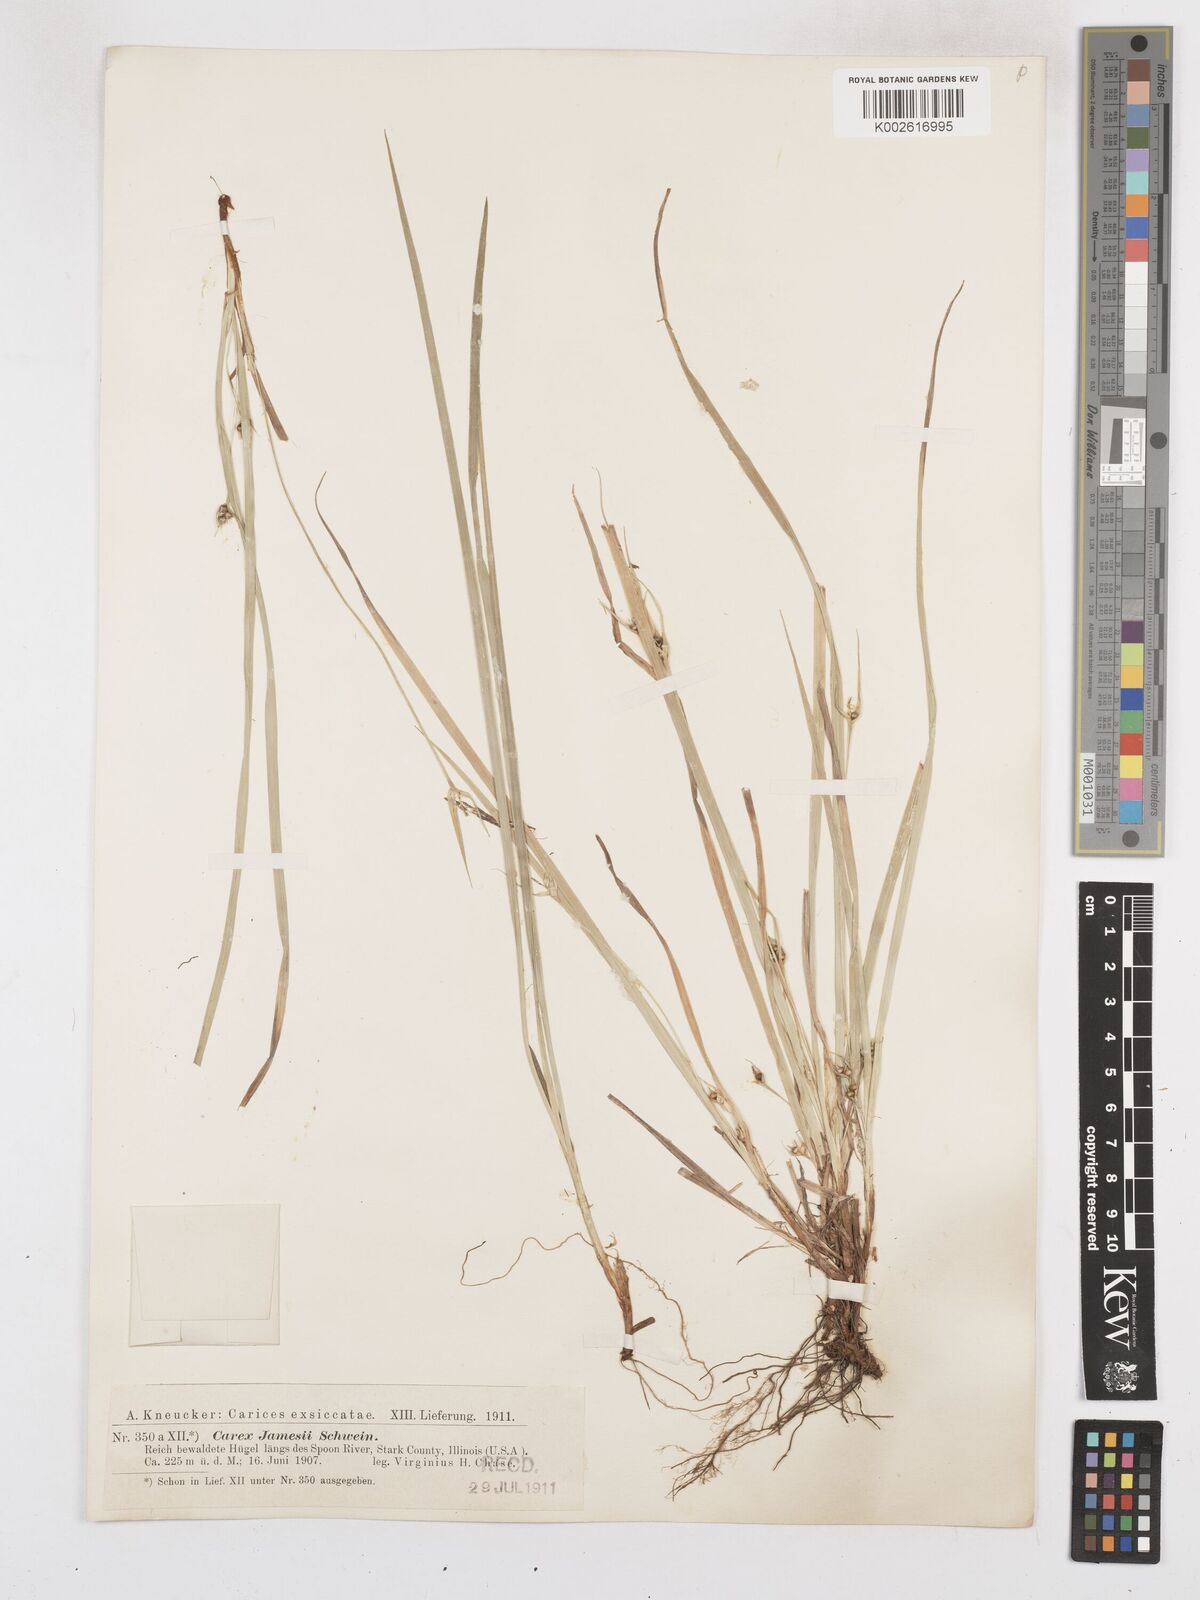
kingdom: Plantae
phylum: Tracheophyta
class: Liliopsida
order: Poales
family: Cyperaceae
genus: Carex
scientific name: Carex jamesii
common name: Grass sedge
